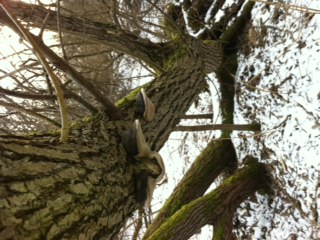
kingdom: Fungi
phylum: Basidiomycota
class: Agaricomycetes
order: Hymenochaetales
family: Hymenochaetaceae
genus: Phellinus
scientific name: Phellinus igniarius
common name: almindelig ildporesvamp
